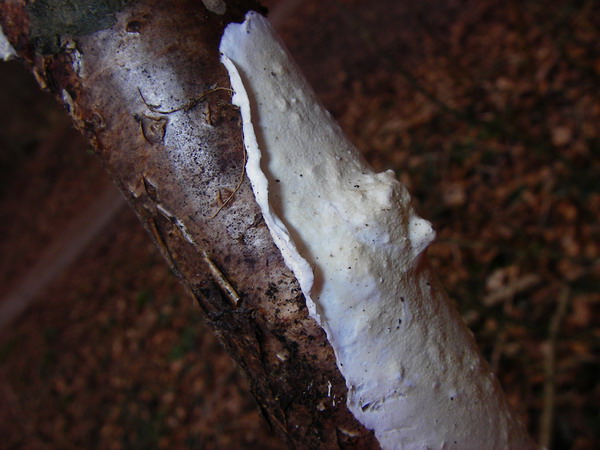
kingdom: Fungi
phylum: Basidiomycota
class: Agaricomycetes
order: Polyporales
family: Irpicaceae
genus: Byssomerulius
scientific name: Byssomerulius corium
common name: læder-åresvamp
